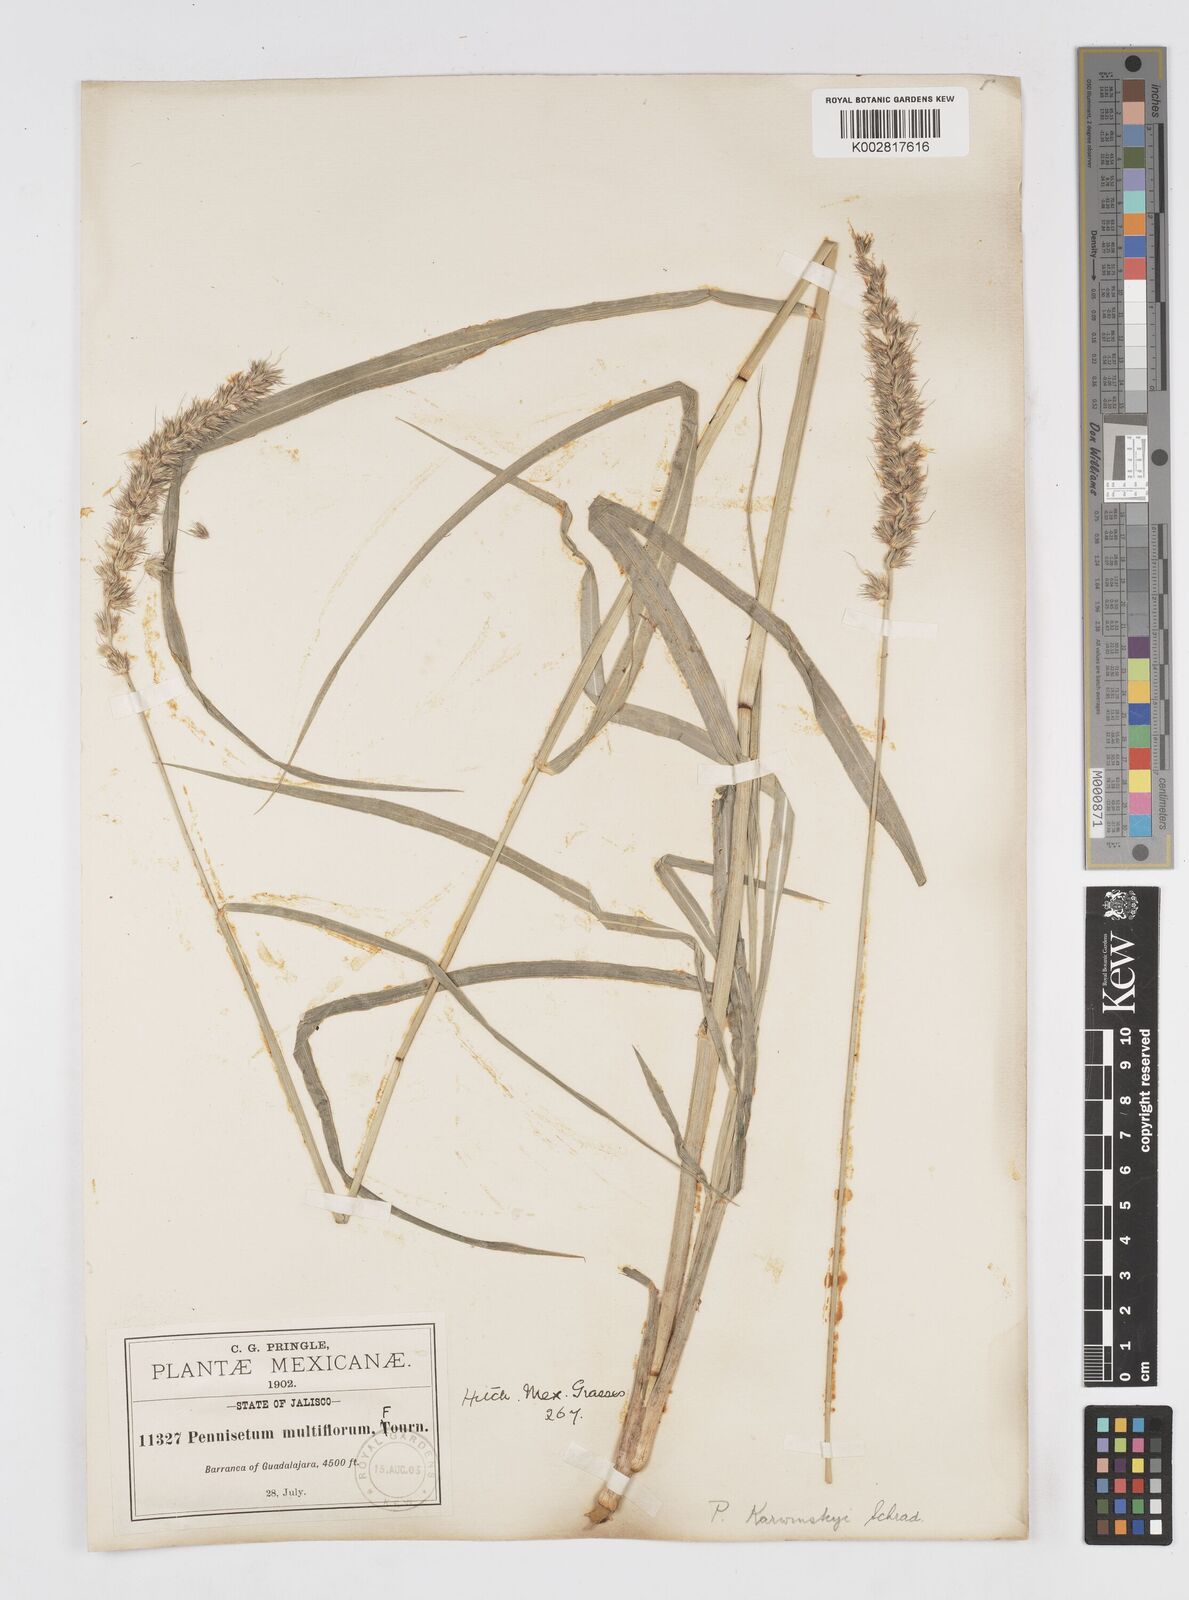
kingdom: Plantae
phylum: Tracheophyta
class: Liliopsida
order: Poales
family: Poaceae
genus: Cenchrus
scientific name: Cenchrus multiflorus
